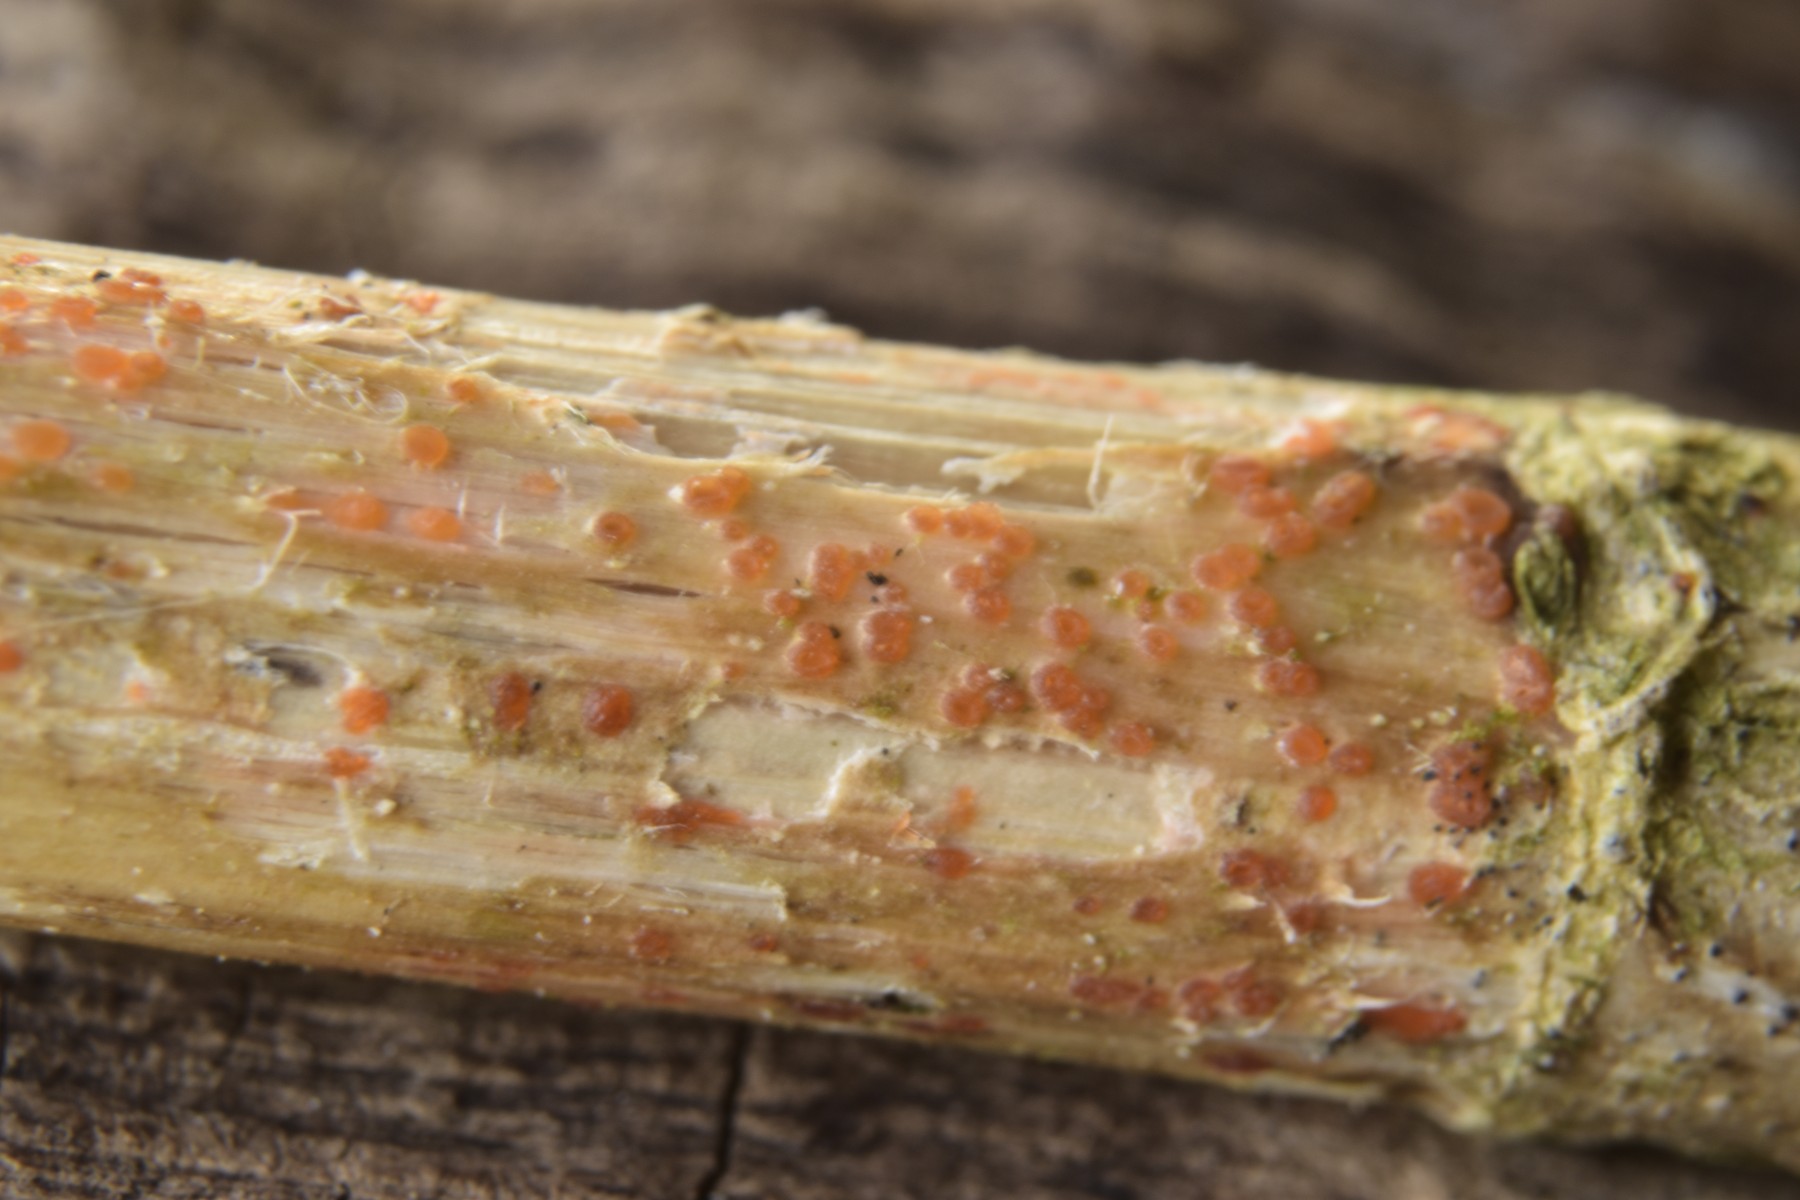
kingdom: Fungi
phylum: Ascomycota
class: Leotiomycetes
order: Helotiales
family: Calloriaceae
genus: Calloria
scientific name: Calloria urticae
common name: nælde-orangeskive
